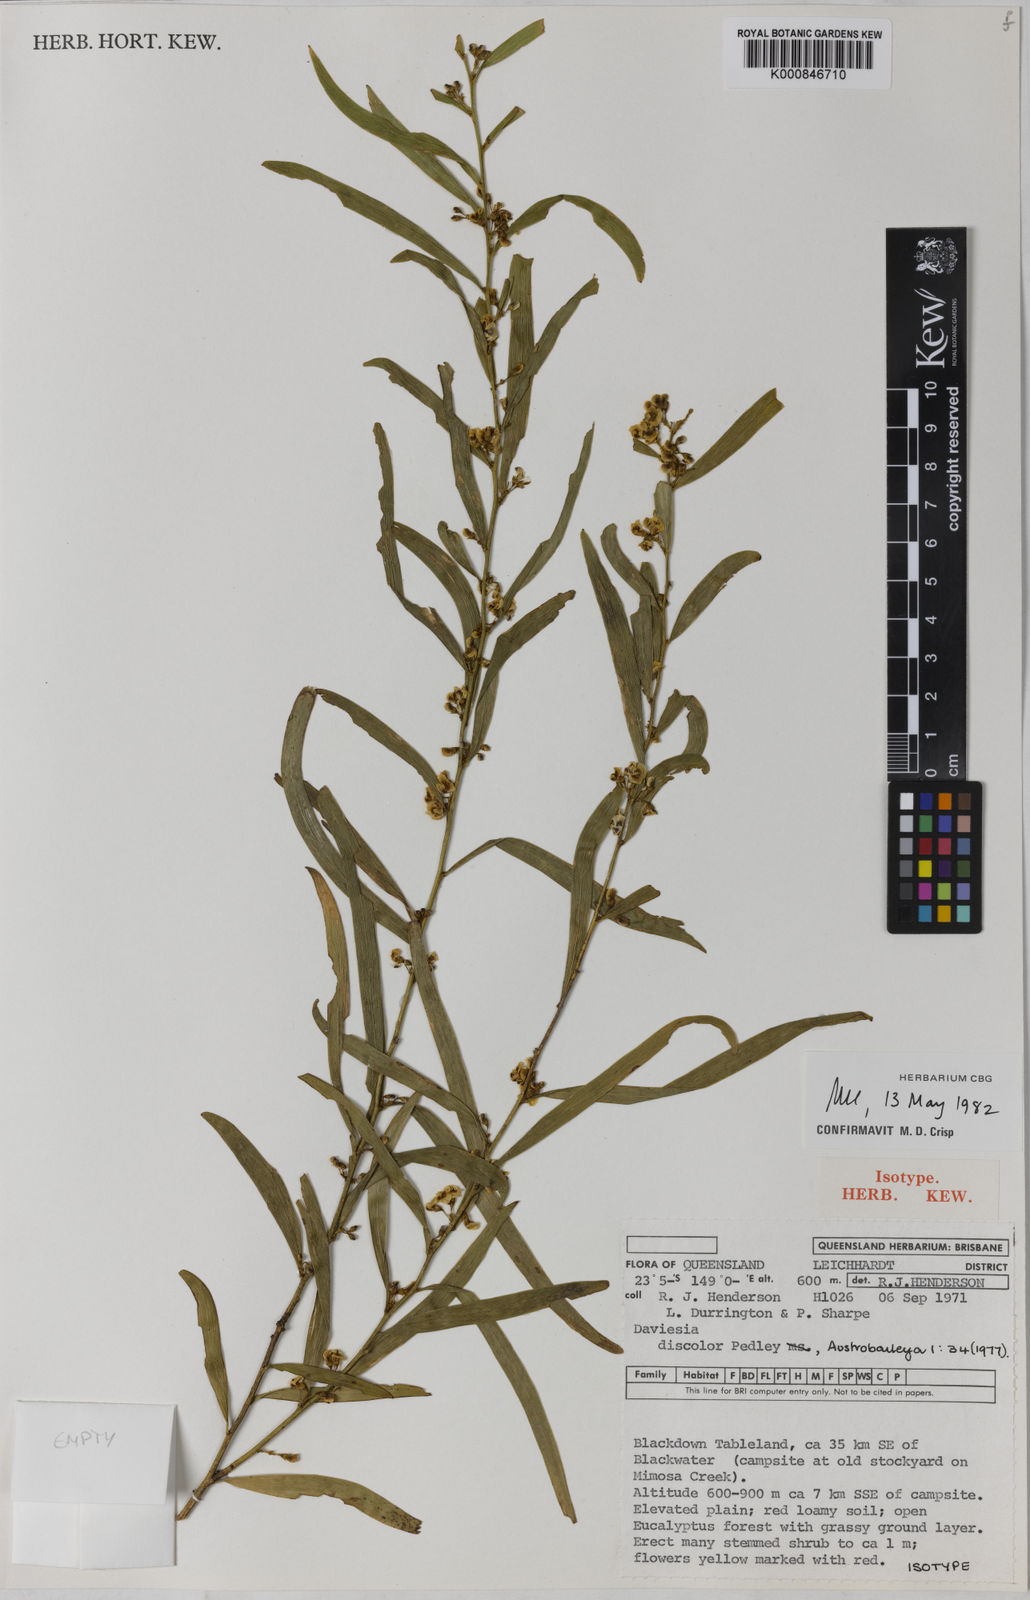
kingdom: Plantae
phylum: Tracheophyta
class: Magnoliopsida
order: Fabales
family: Fabaceae
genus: Daviesia
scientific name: Daviesia discolor
